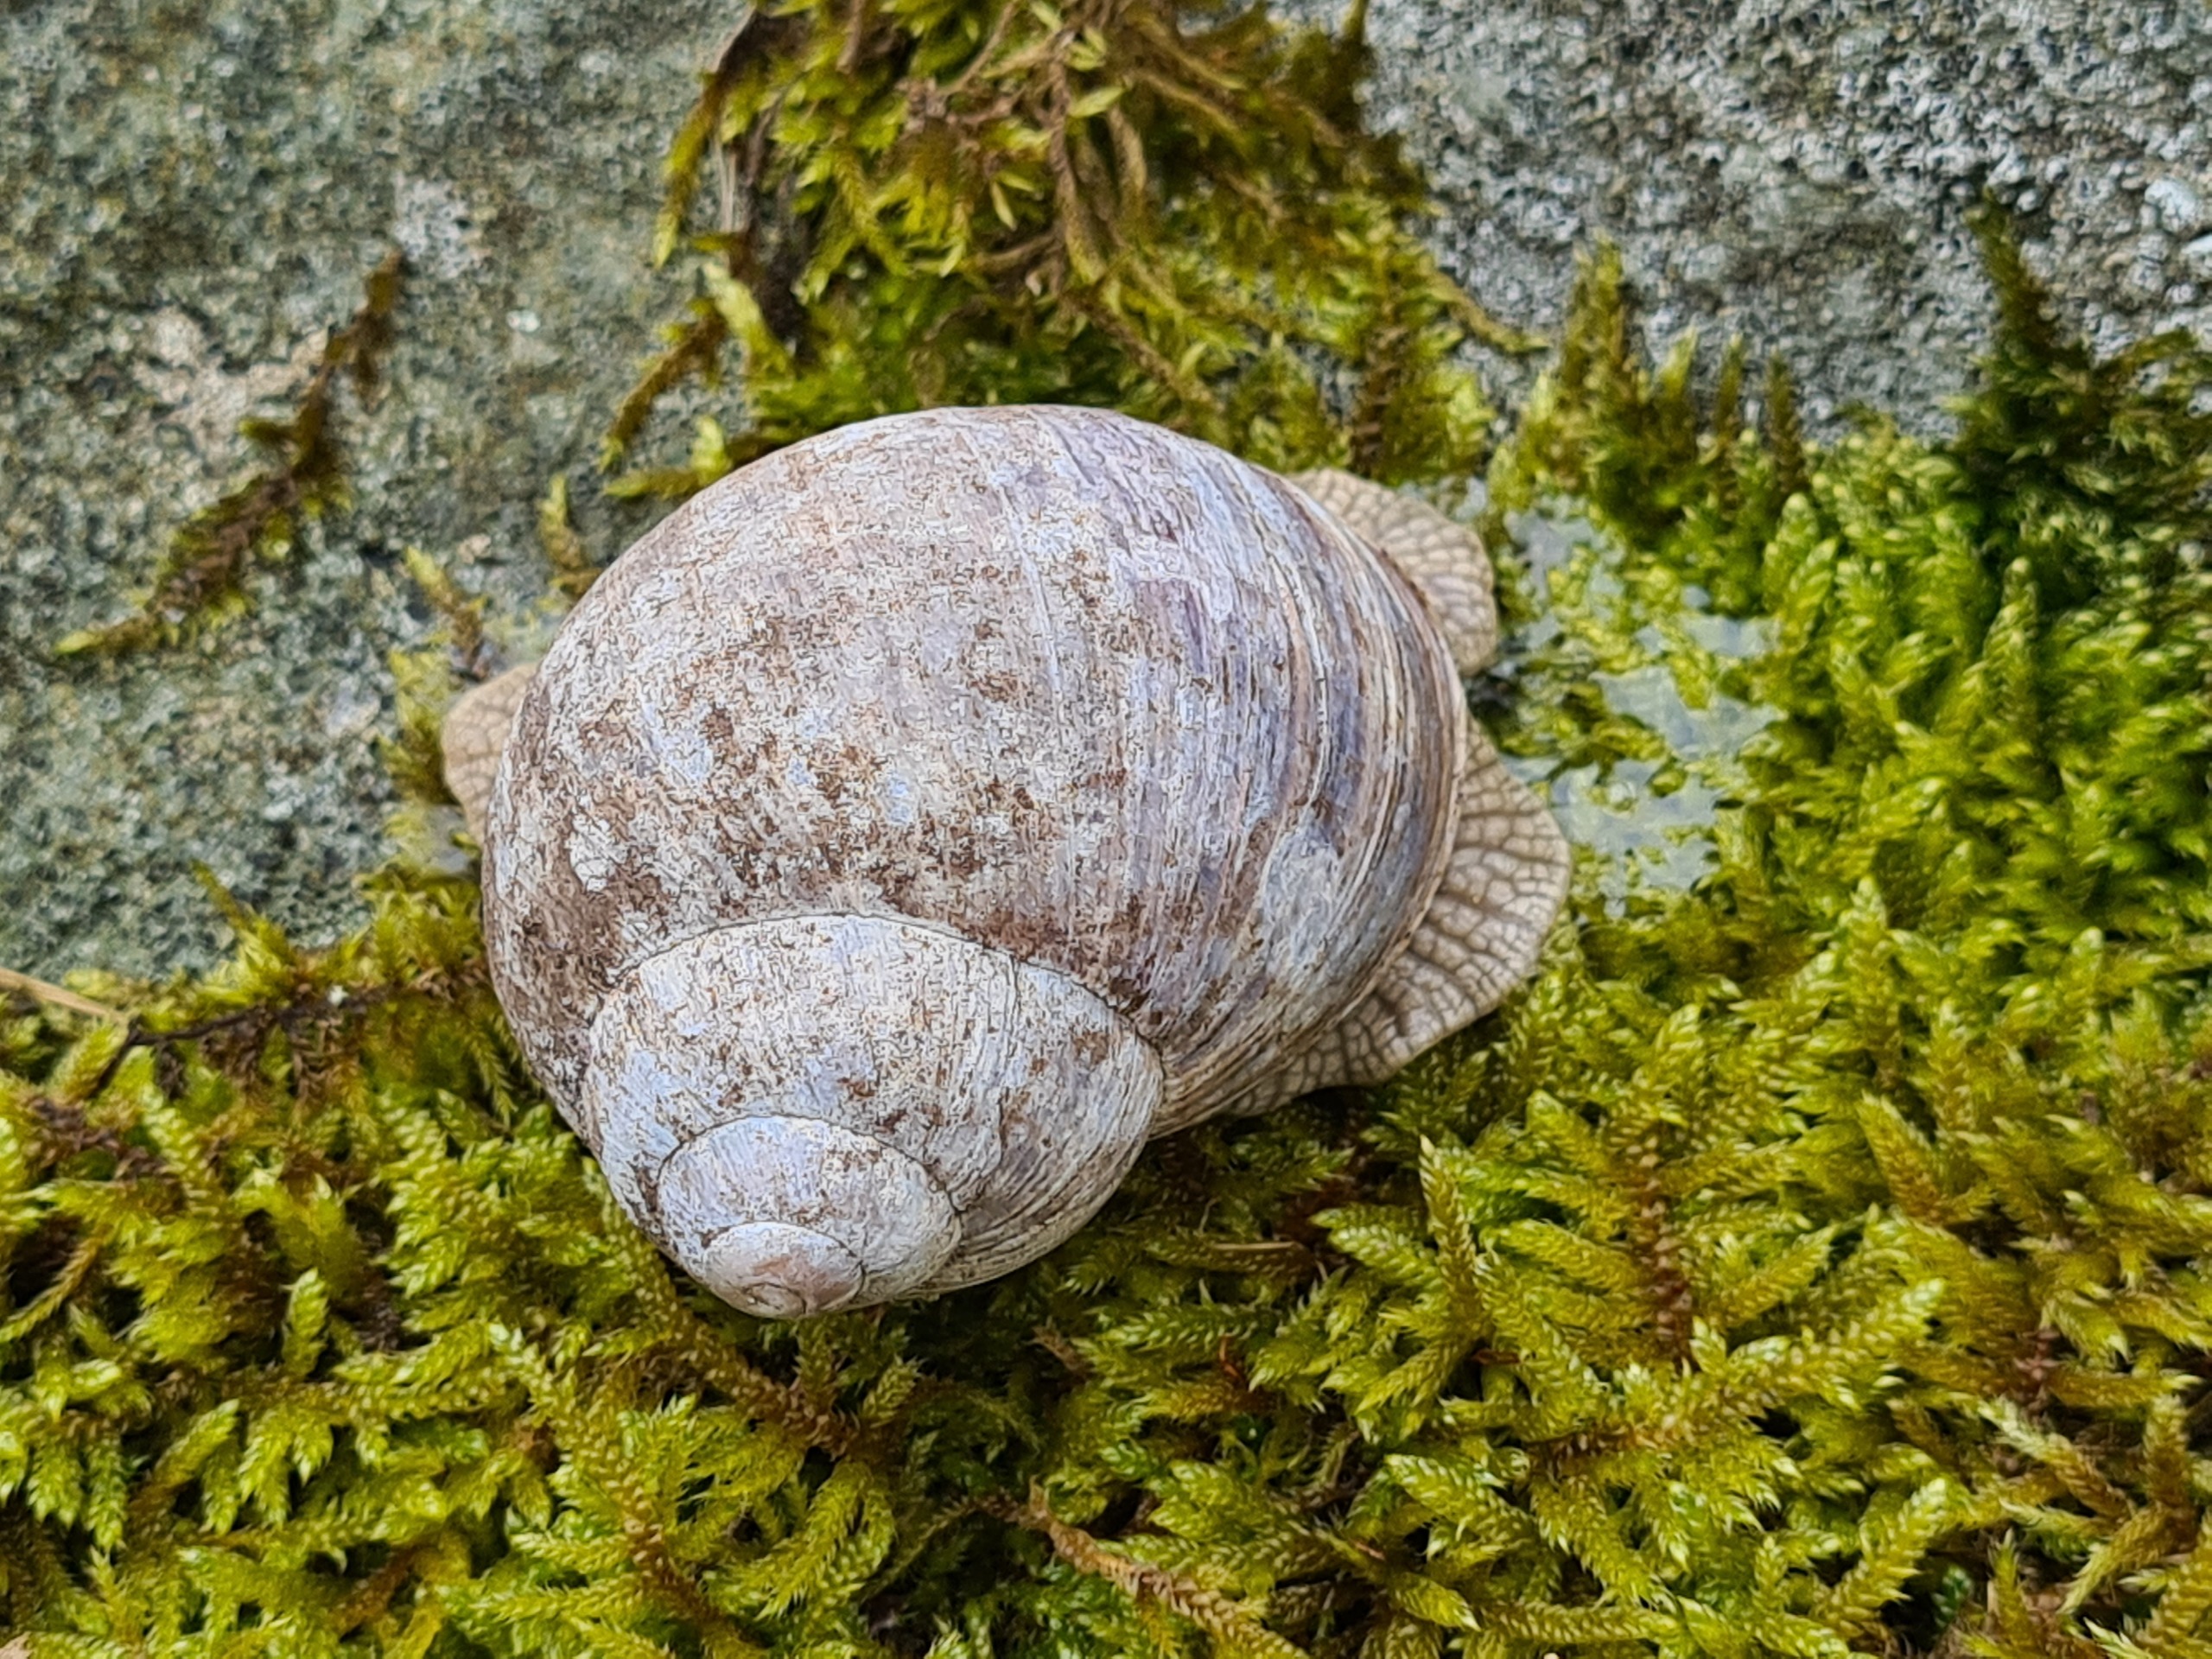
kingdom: Animalia
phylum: Mollusca
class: Gastropoda
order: Stylommatophora
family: Helicidae
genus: Helix
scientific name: Helix pomatia
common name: Vinbjergsnegl
